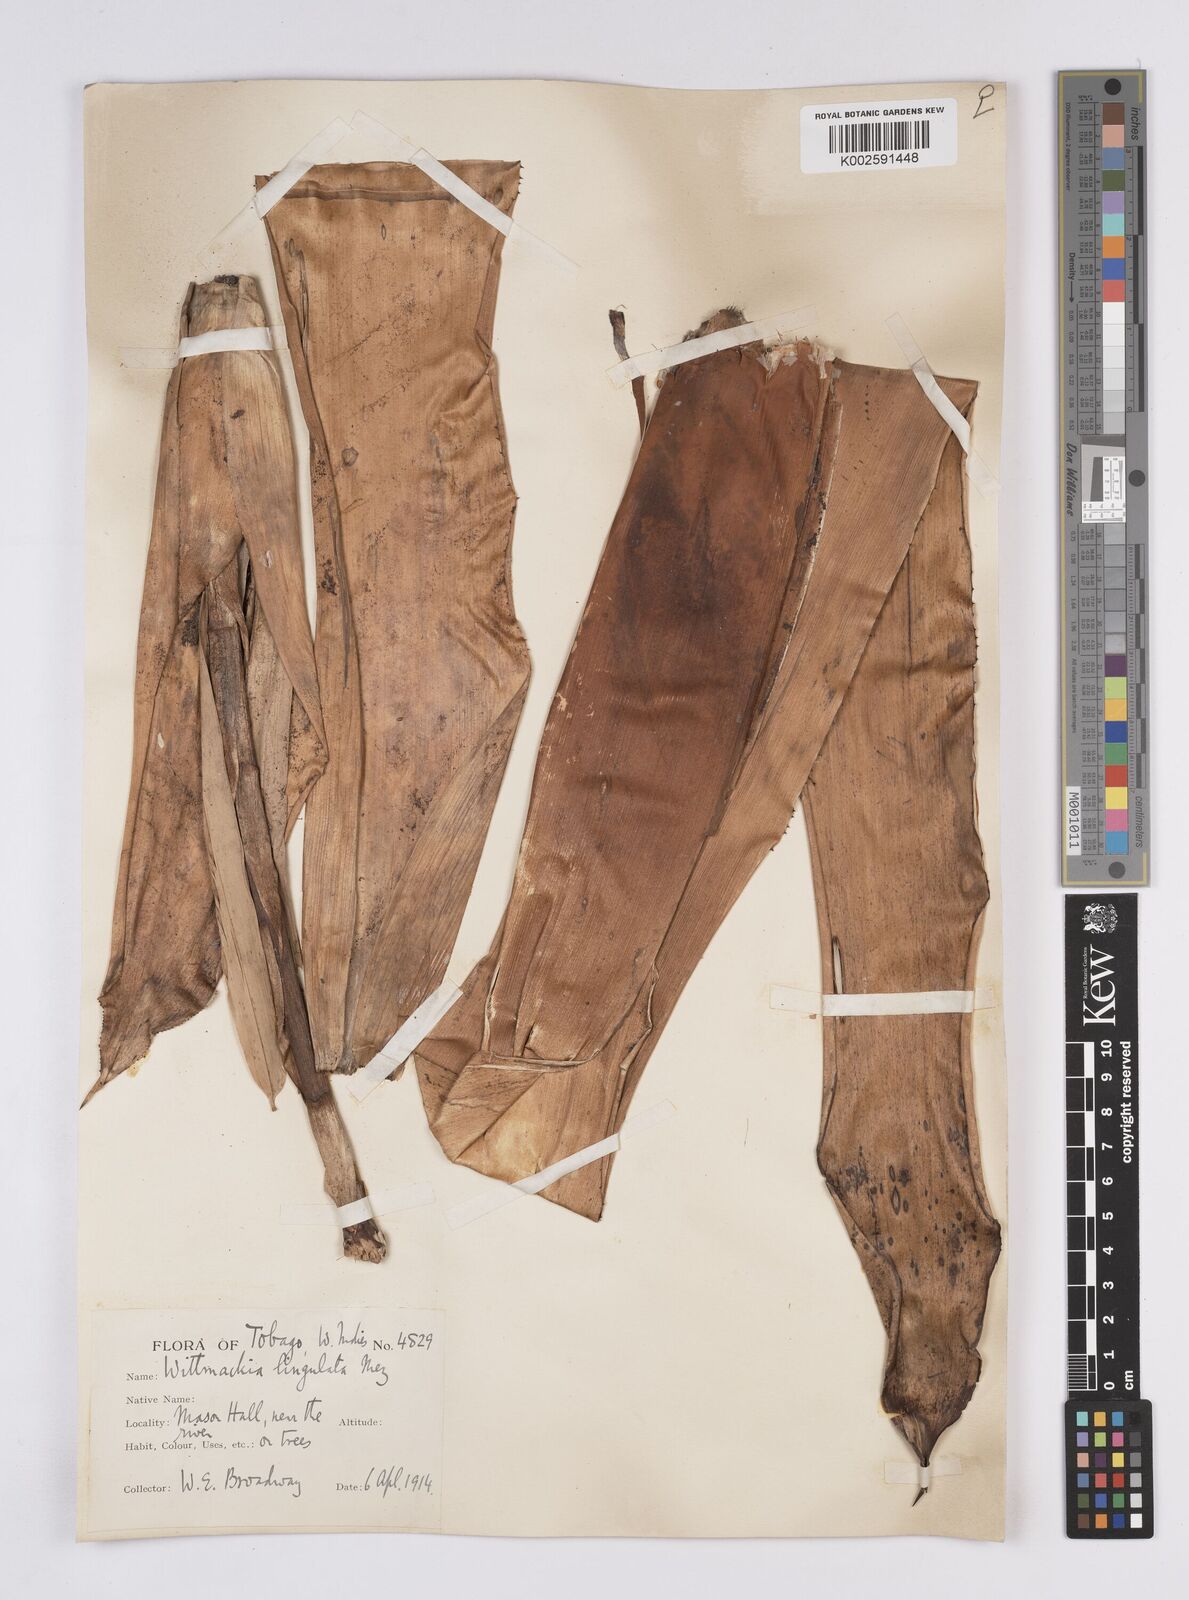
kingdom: Plantae
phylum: Tracheophyta
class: Liliopsida
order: Poales
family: Bromeliaceae
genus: Wittmackia
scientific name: Wittmackia lingulata
